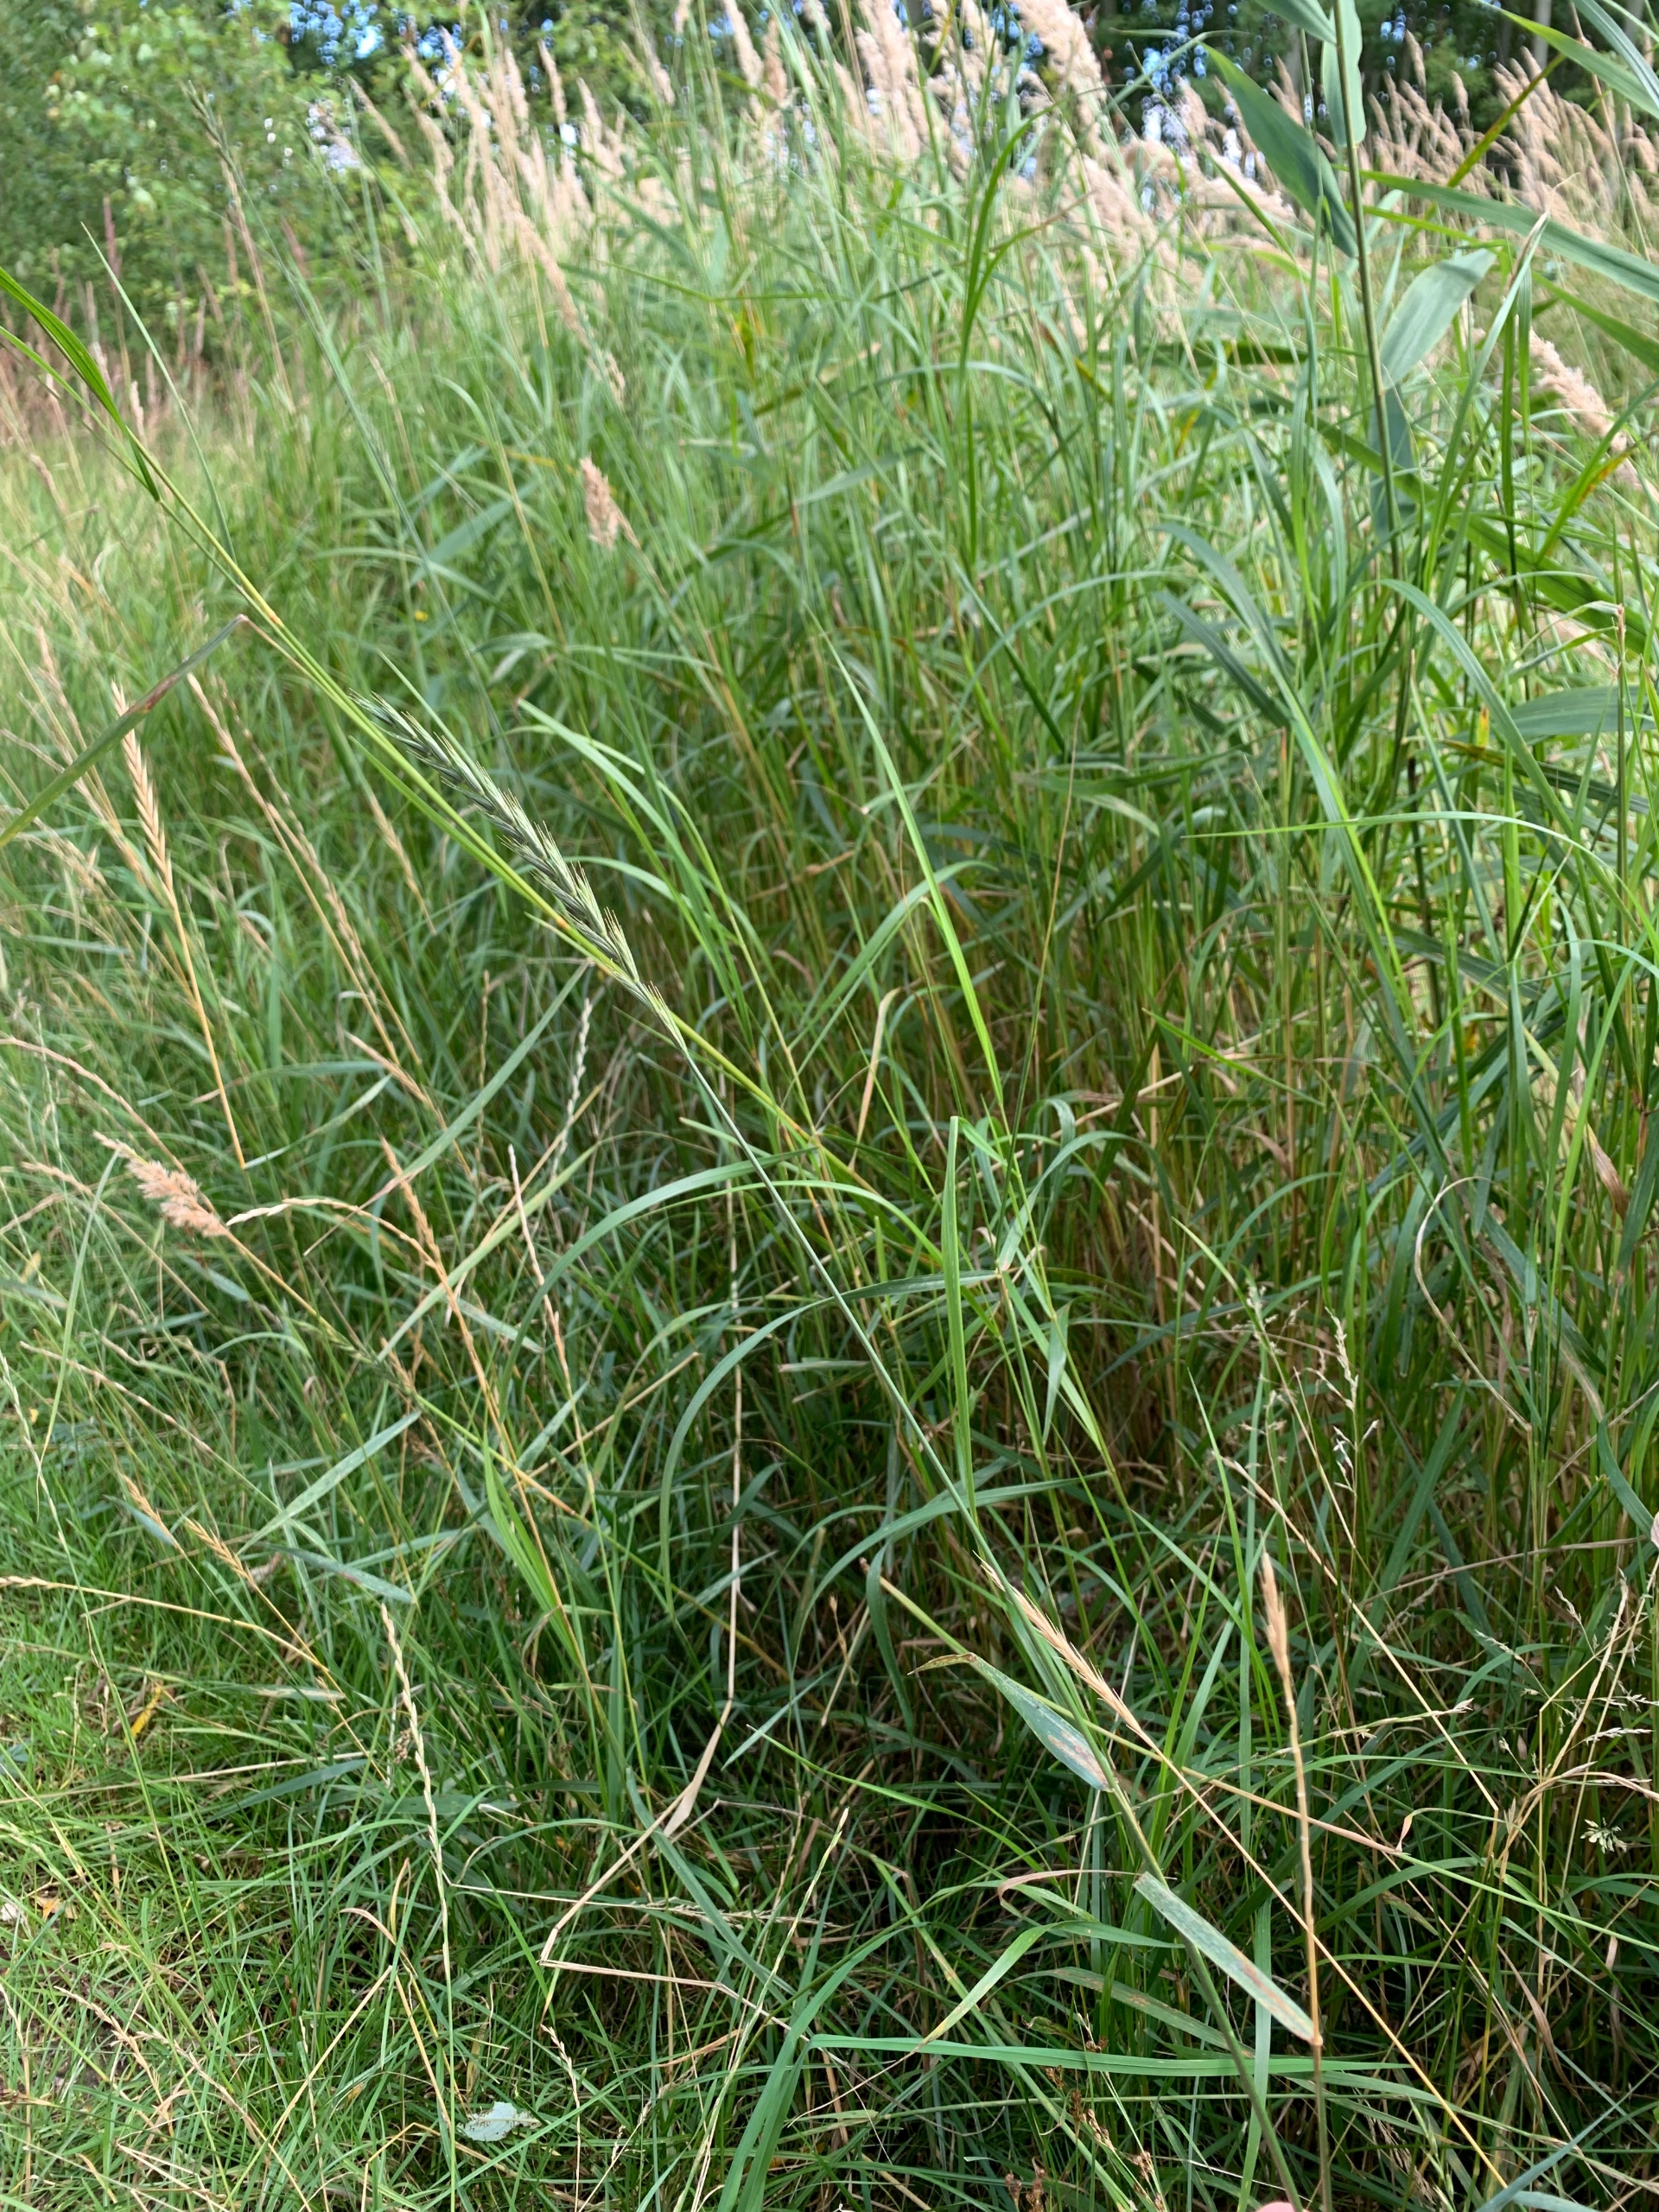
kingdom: Plantae
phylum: Tracheophyta
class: Liliopsida
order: Poales
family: Poaceae
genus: Elymus
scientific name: Elymus repens
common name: Almindelig kvik
